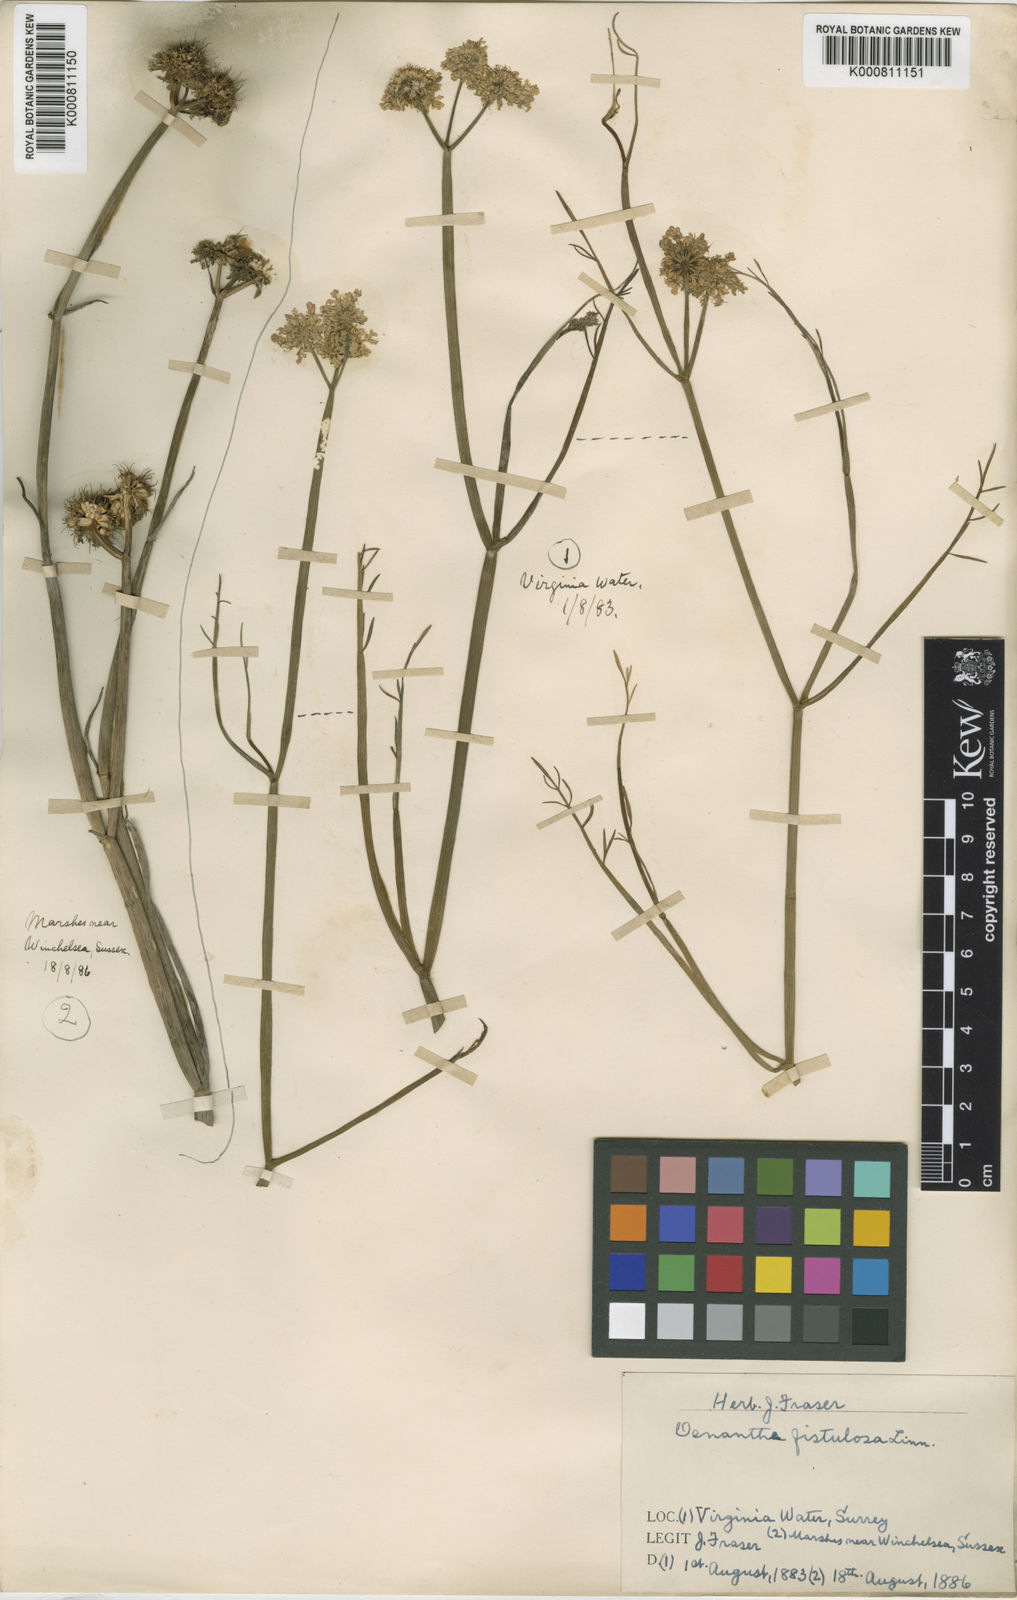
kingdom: Plantae
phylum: Tracheophyta
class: Magnoliopsida
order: Apiales
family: Apiaceae
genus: Oenanthe
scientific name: Oenanthe fistulosa
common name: Tubular water-dropwort
